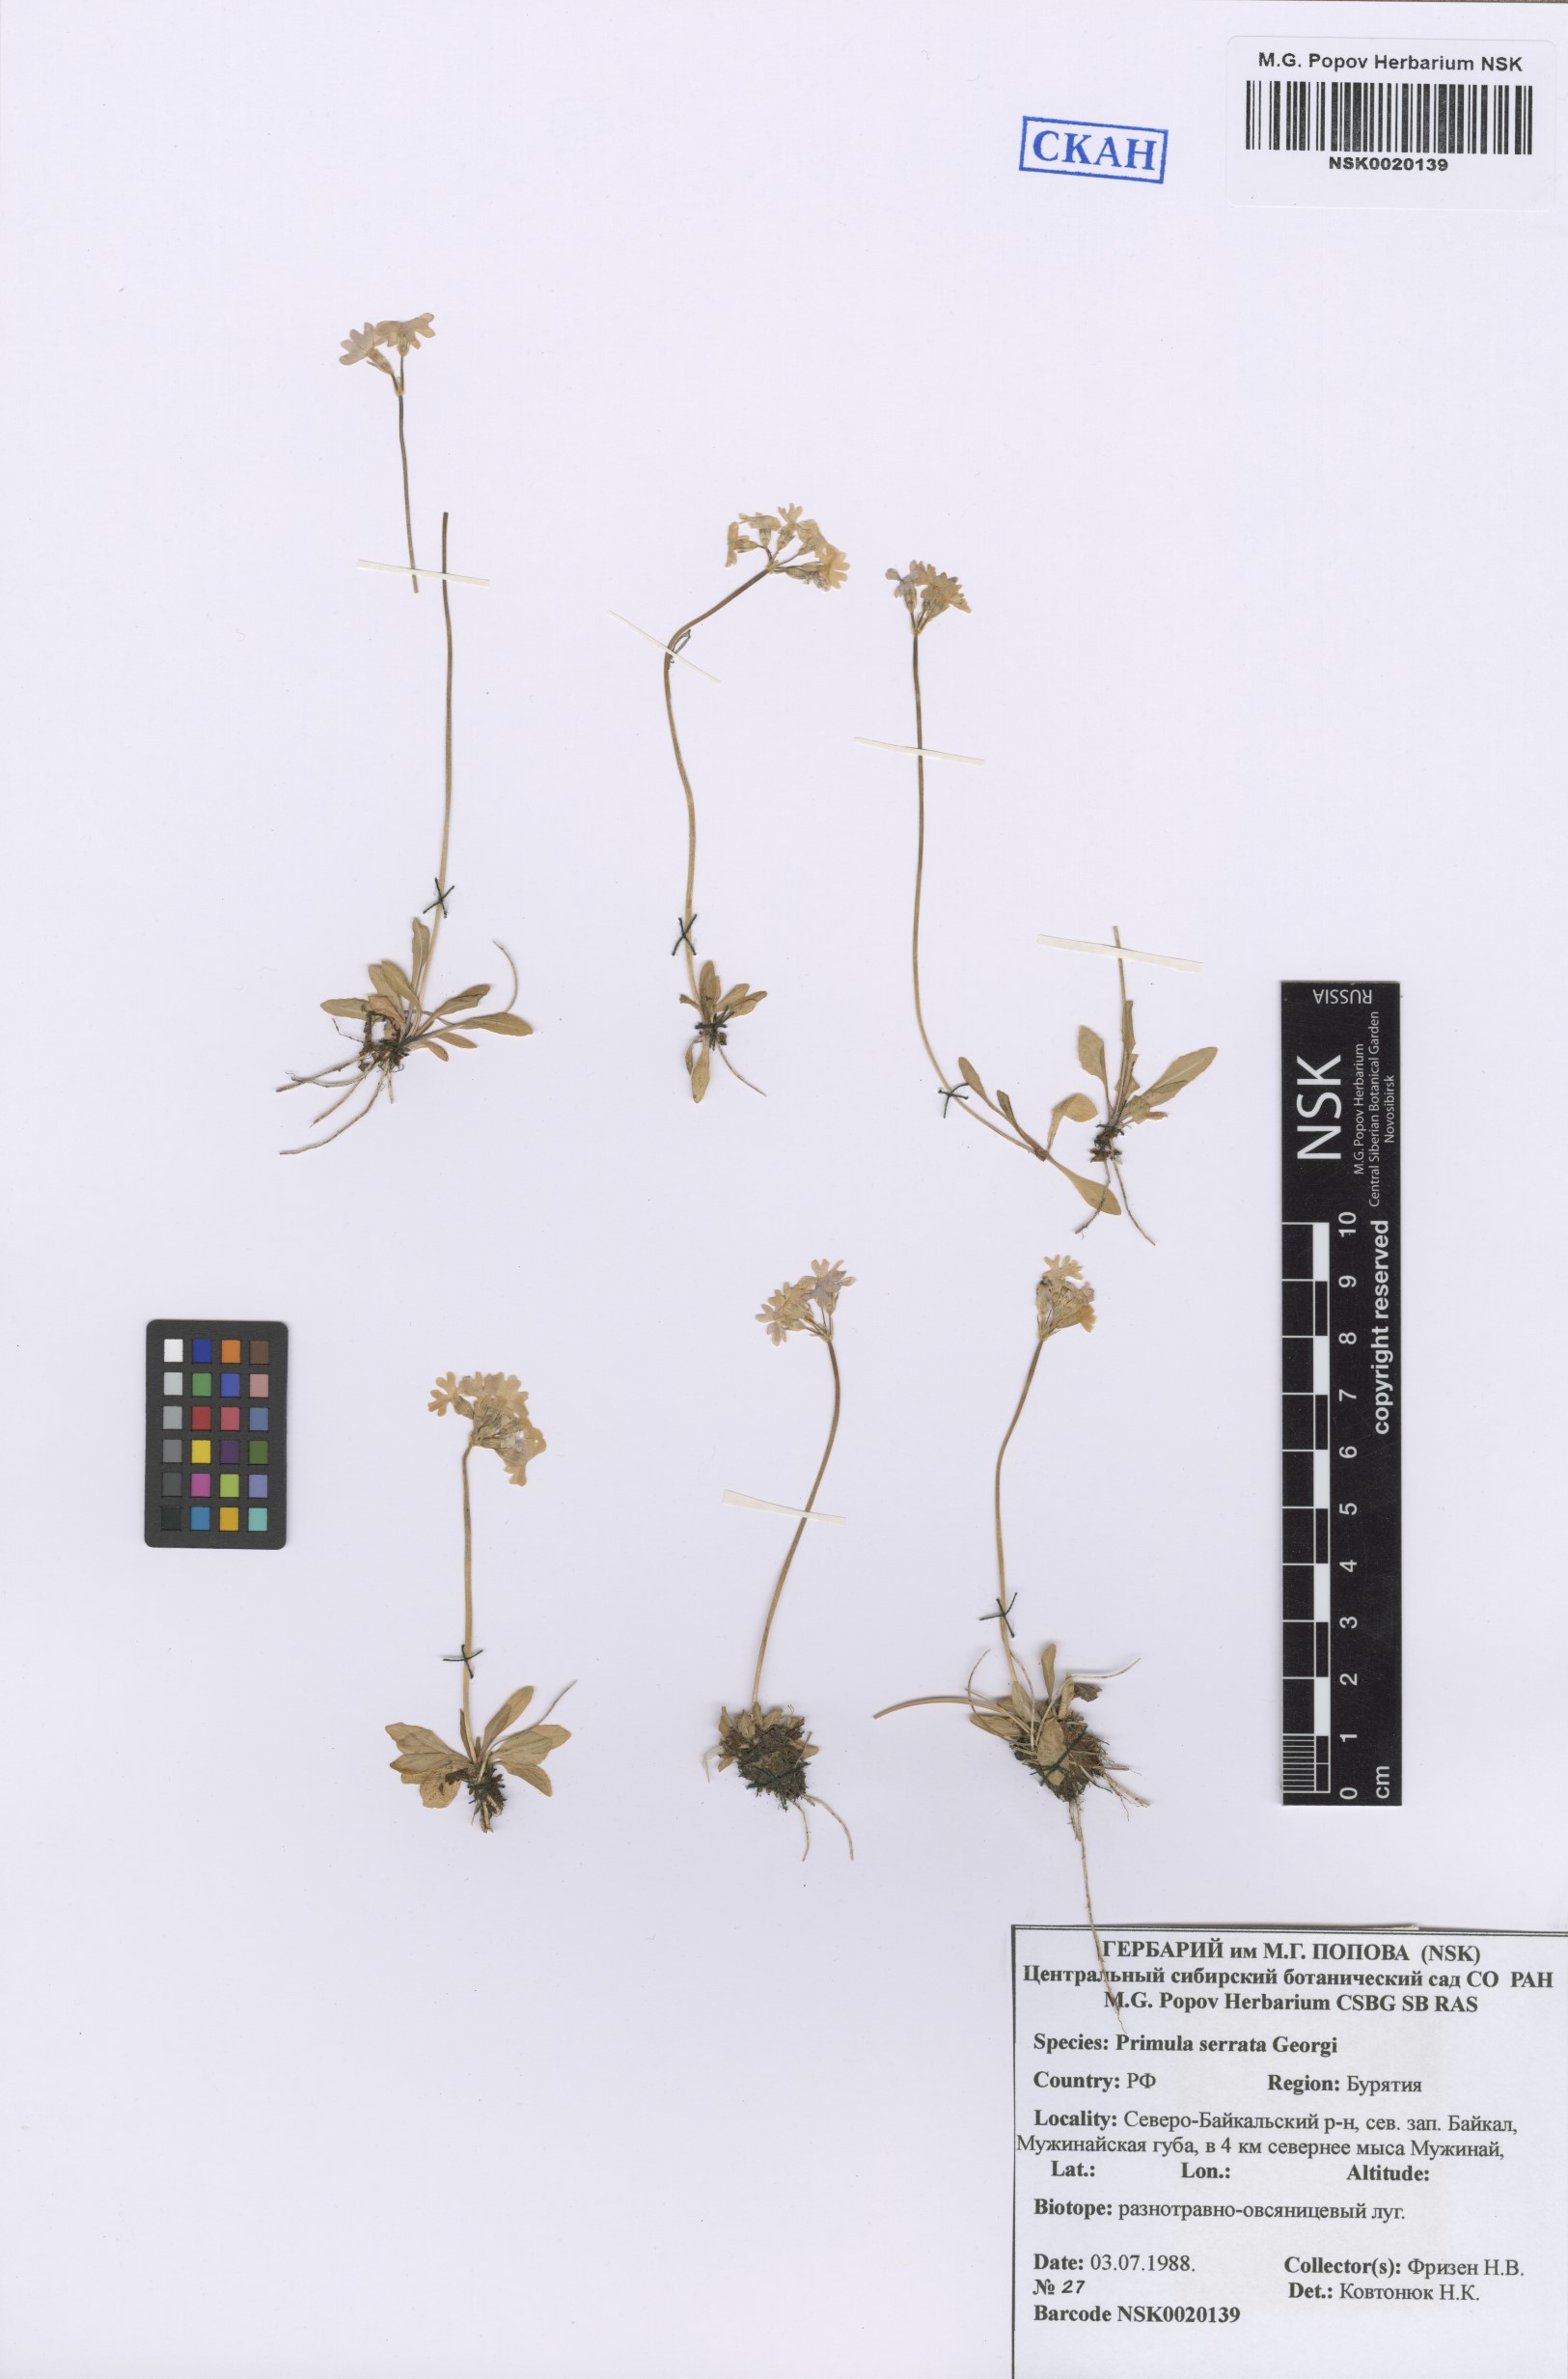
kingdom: Plantae
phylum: Tracheophyta
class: Magnoliopsida
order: Ericales
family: Primulaceae
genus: Primula
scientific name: Primula serrata
